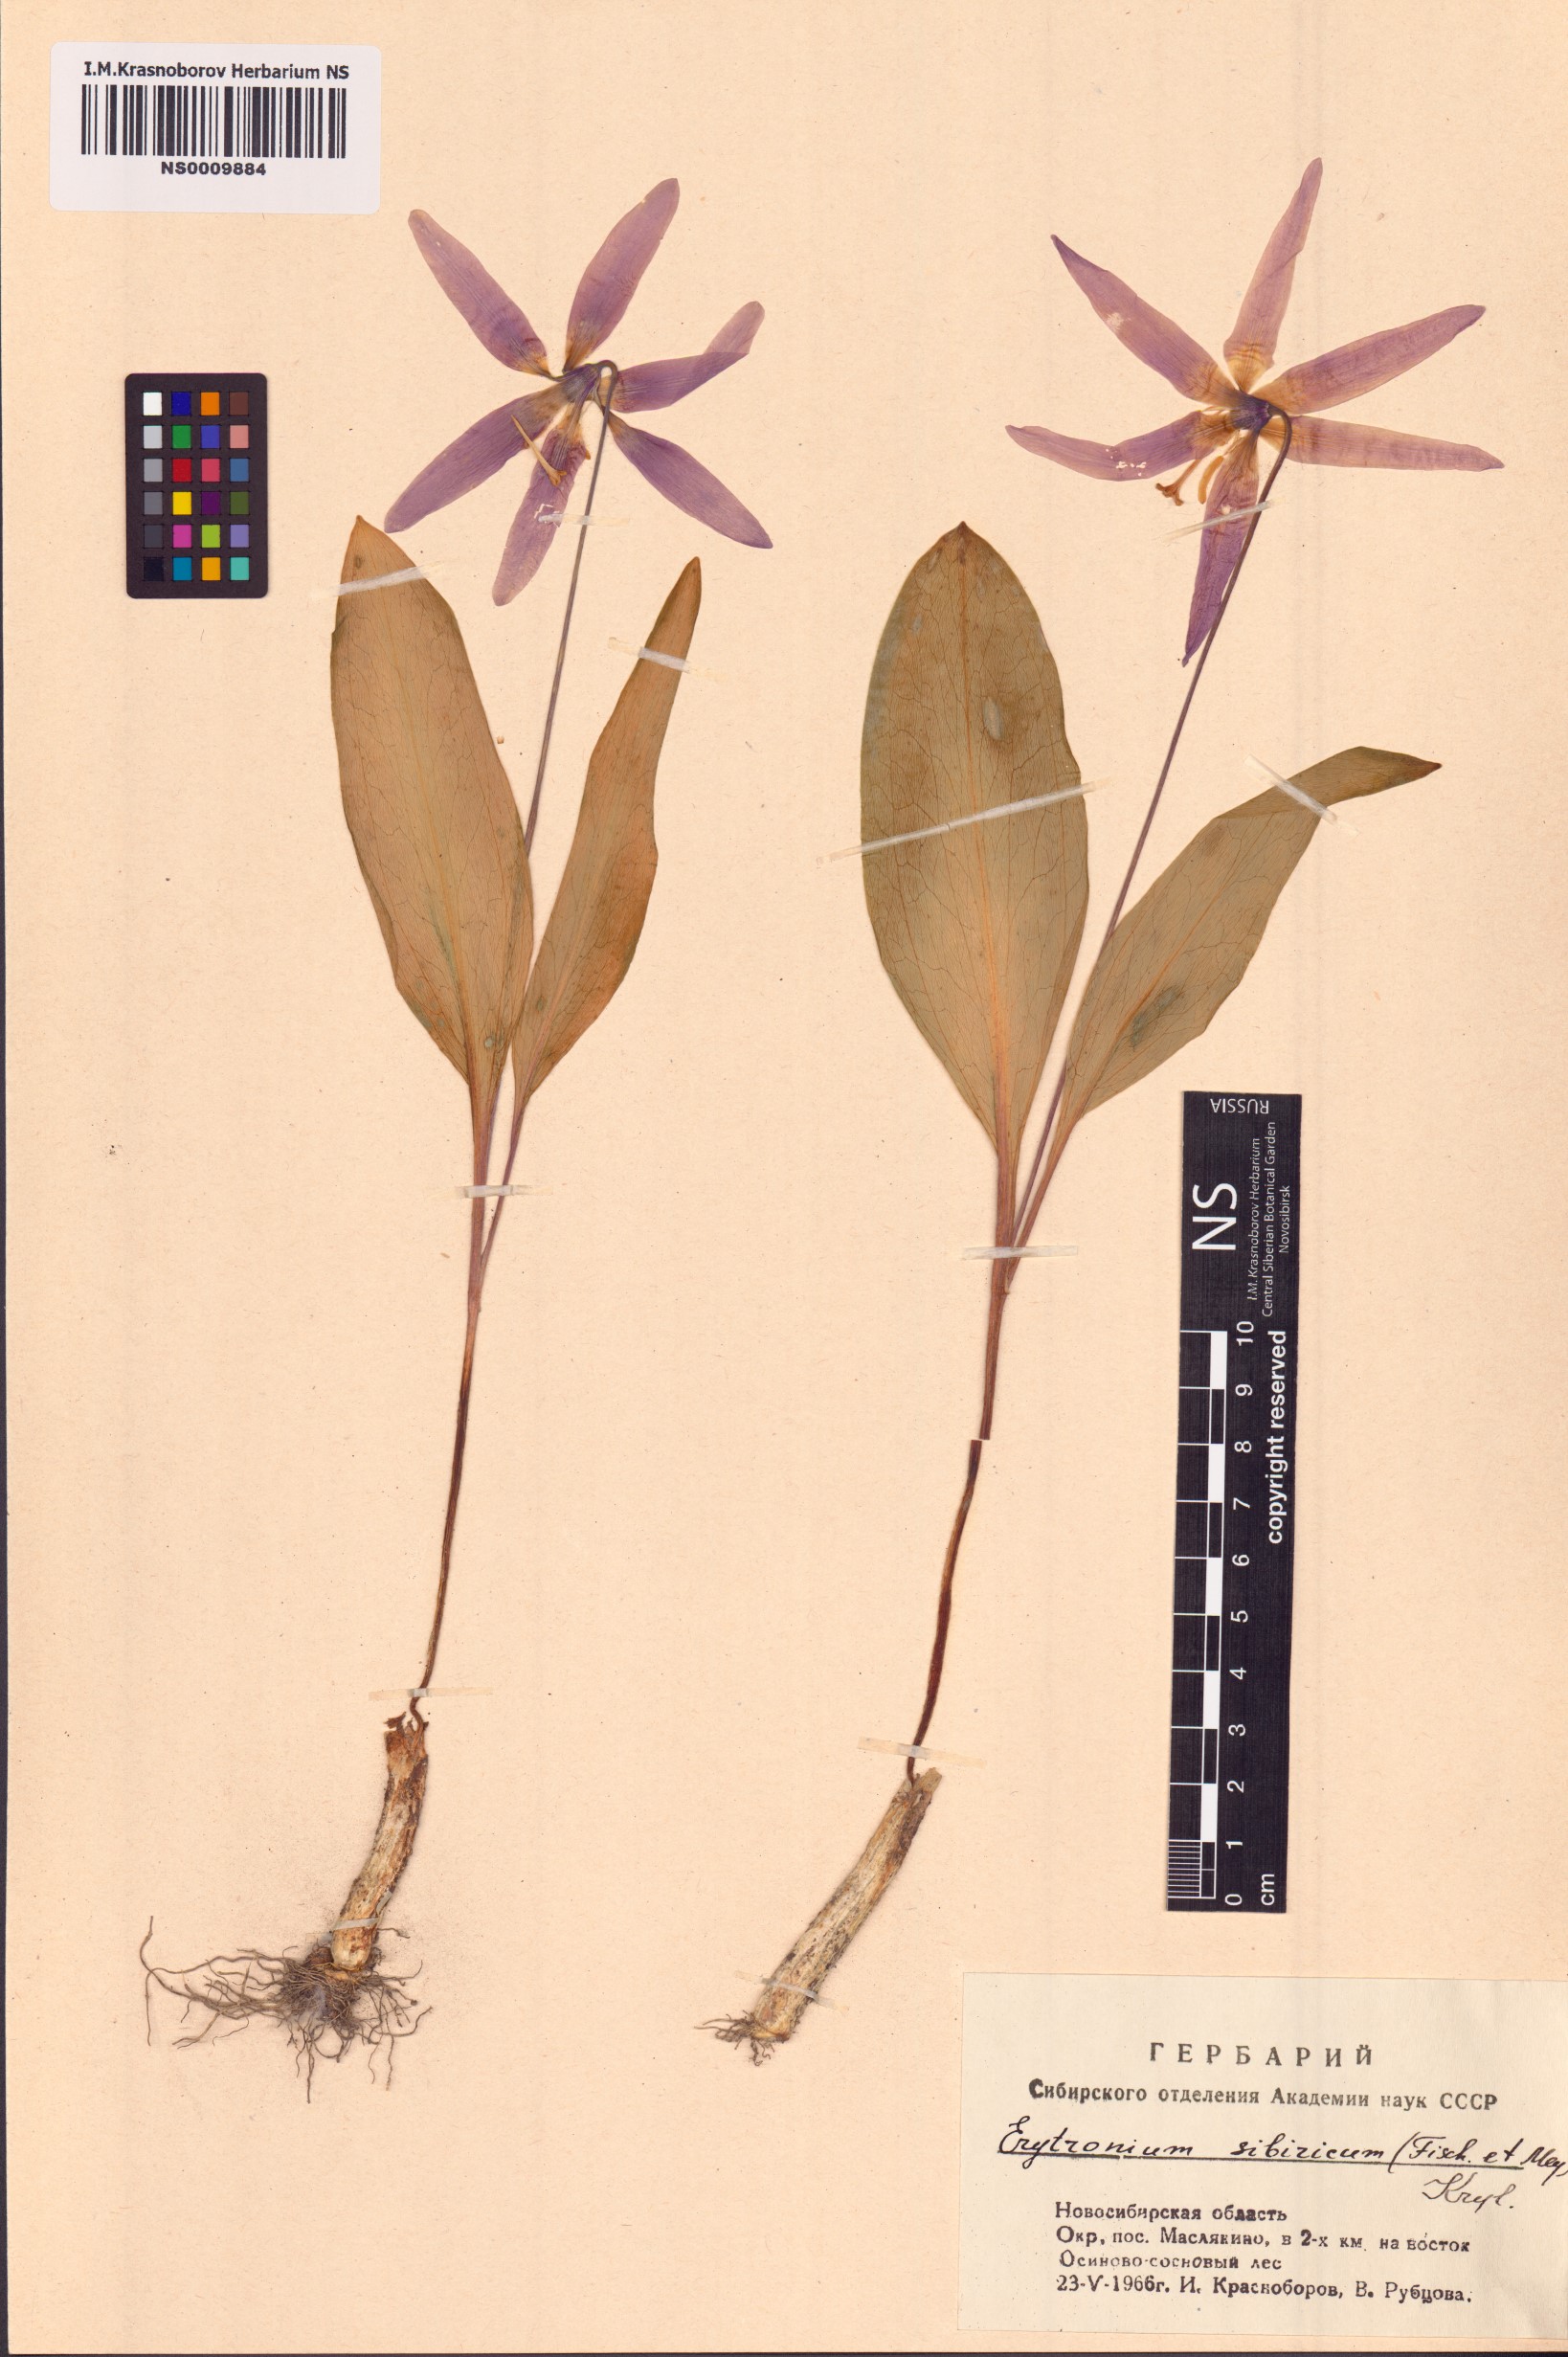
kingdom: Plantae
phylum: Tracheophyta
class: Liliopsida
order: Liliales
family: Liliaceae
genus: Erythronium
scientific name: Erythronium sibiricum
